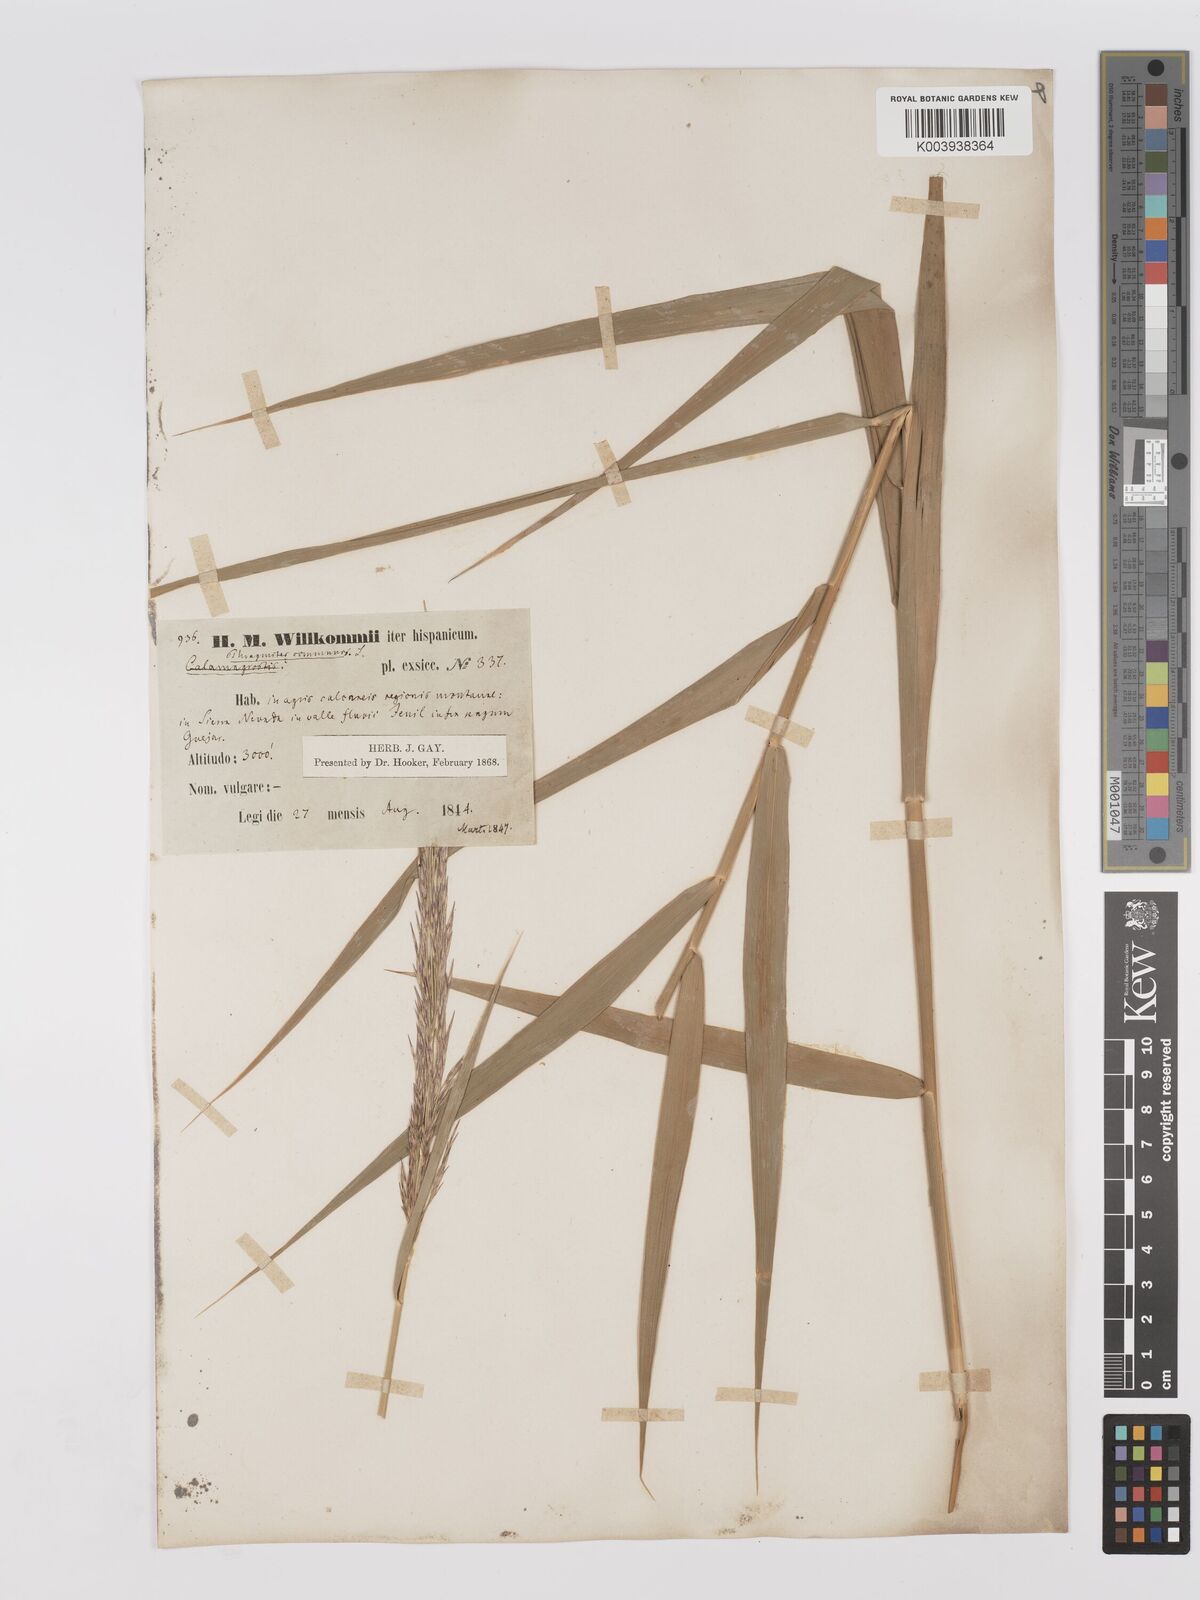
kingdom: Plantae
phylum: Tracheophyta
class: Liliopsida
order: Poales
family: Poaceae
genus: Phragmites
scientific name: Phragmites australis
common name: Common reed
